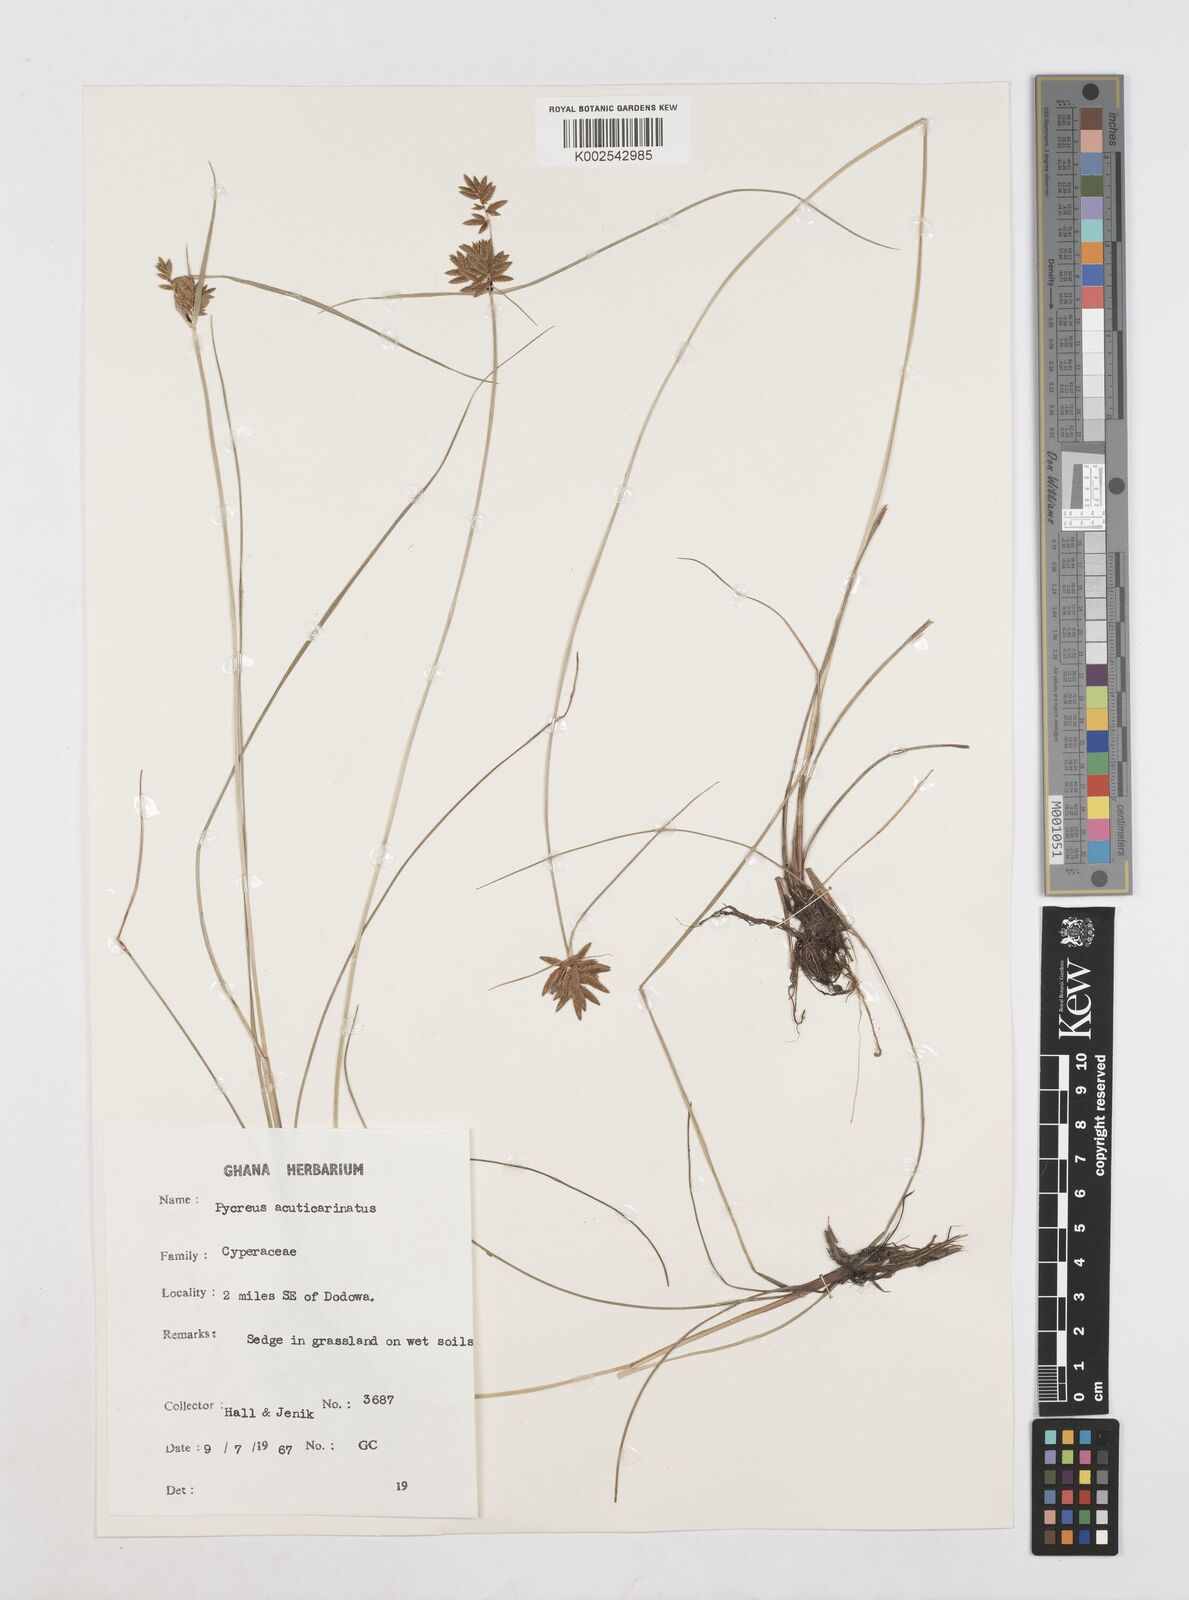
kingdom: Plantae
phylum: Tracheophyta
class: Liliopsida
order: Poales
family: Cyperaceae
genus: Cyperus
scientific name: Cyperus acuticarinatus
